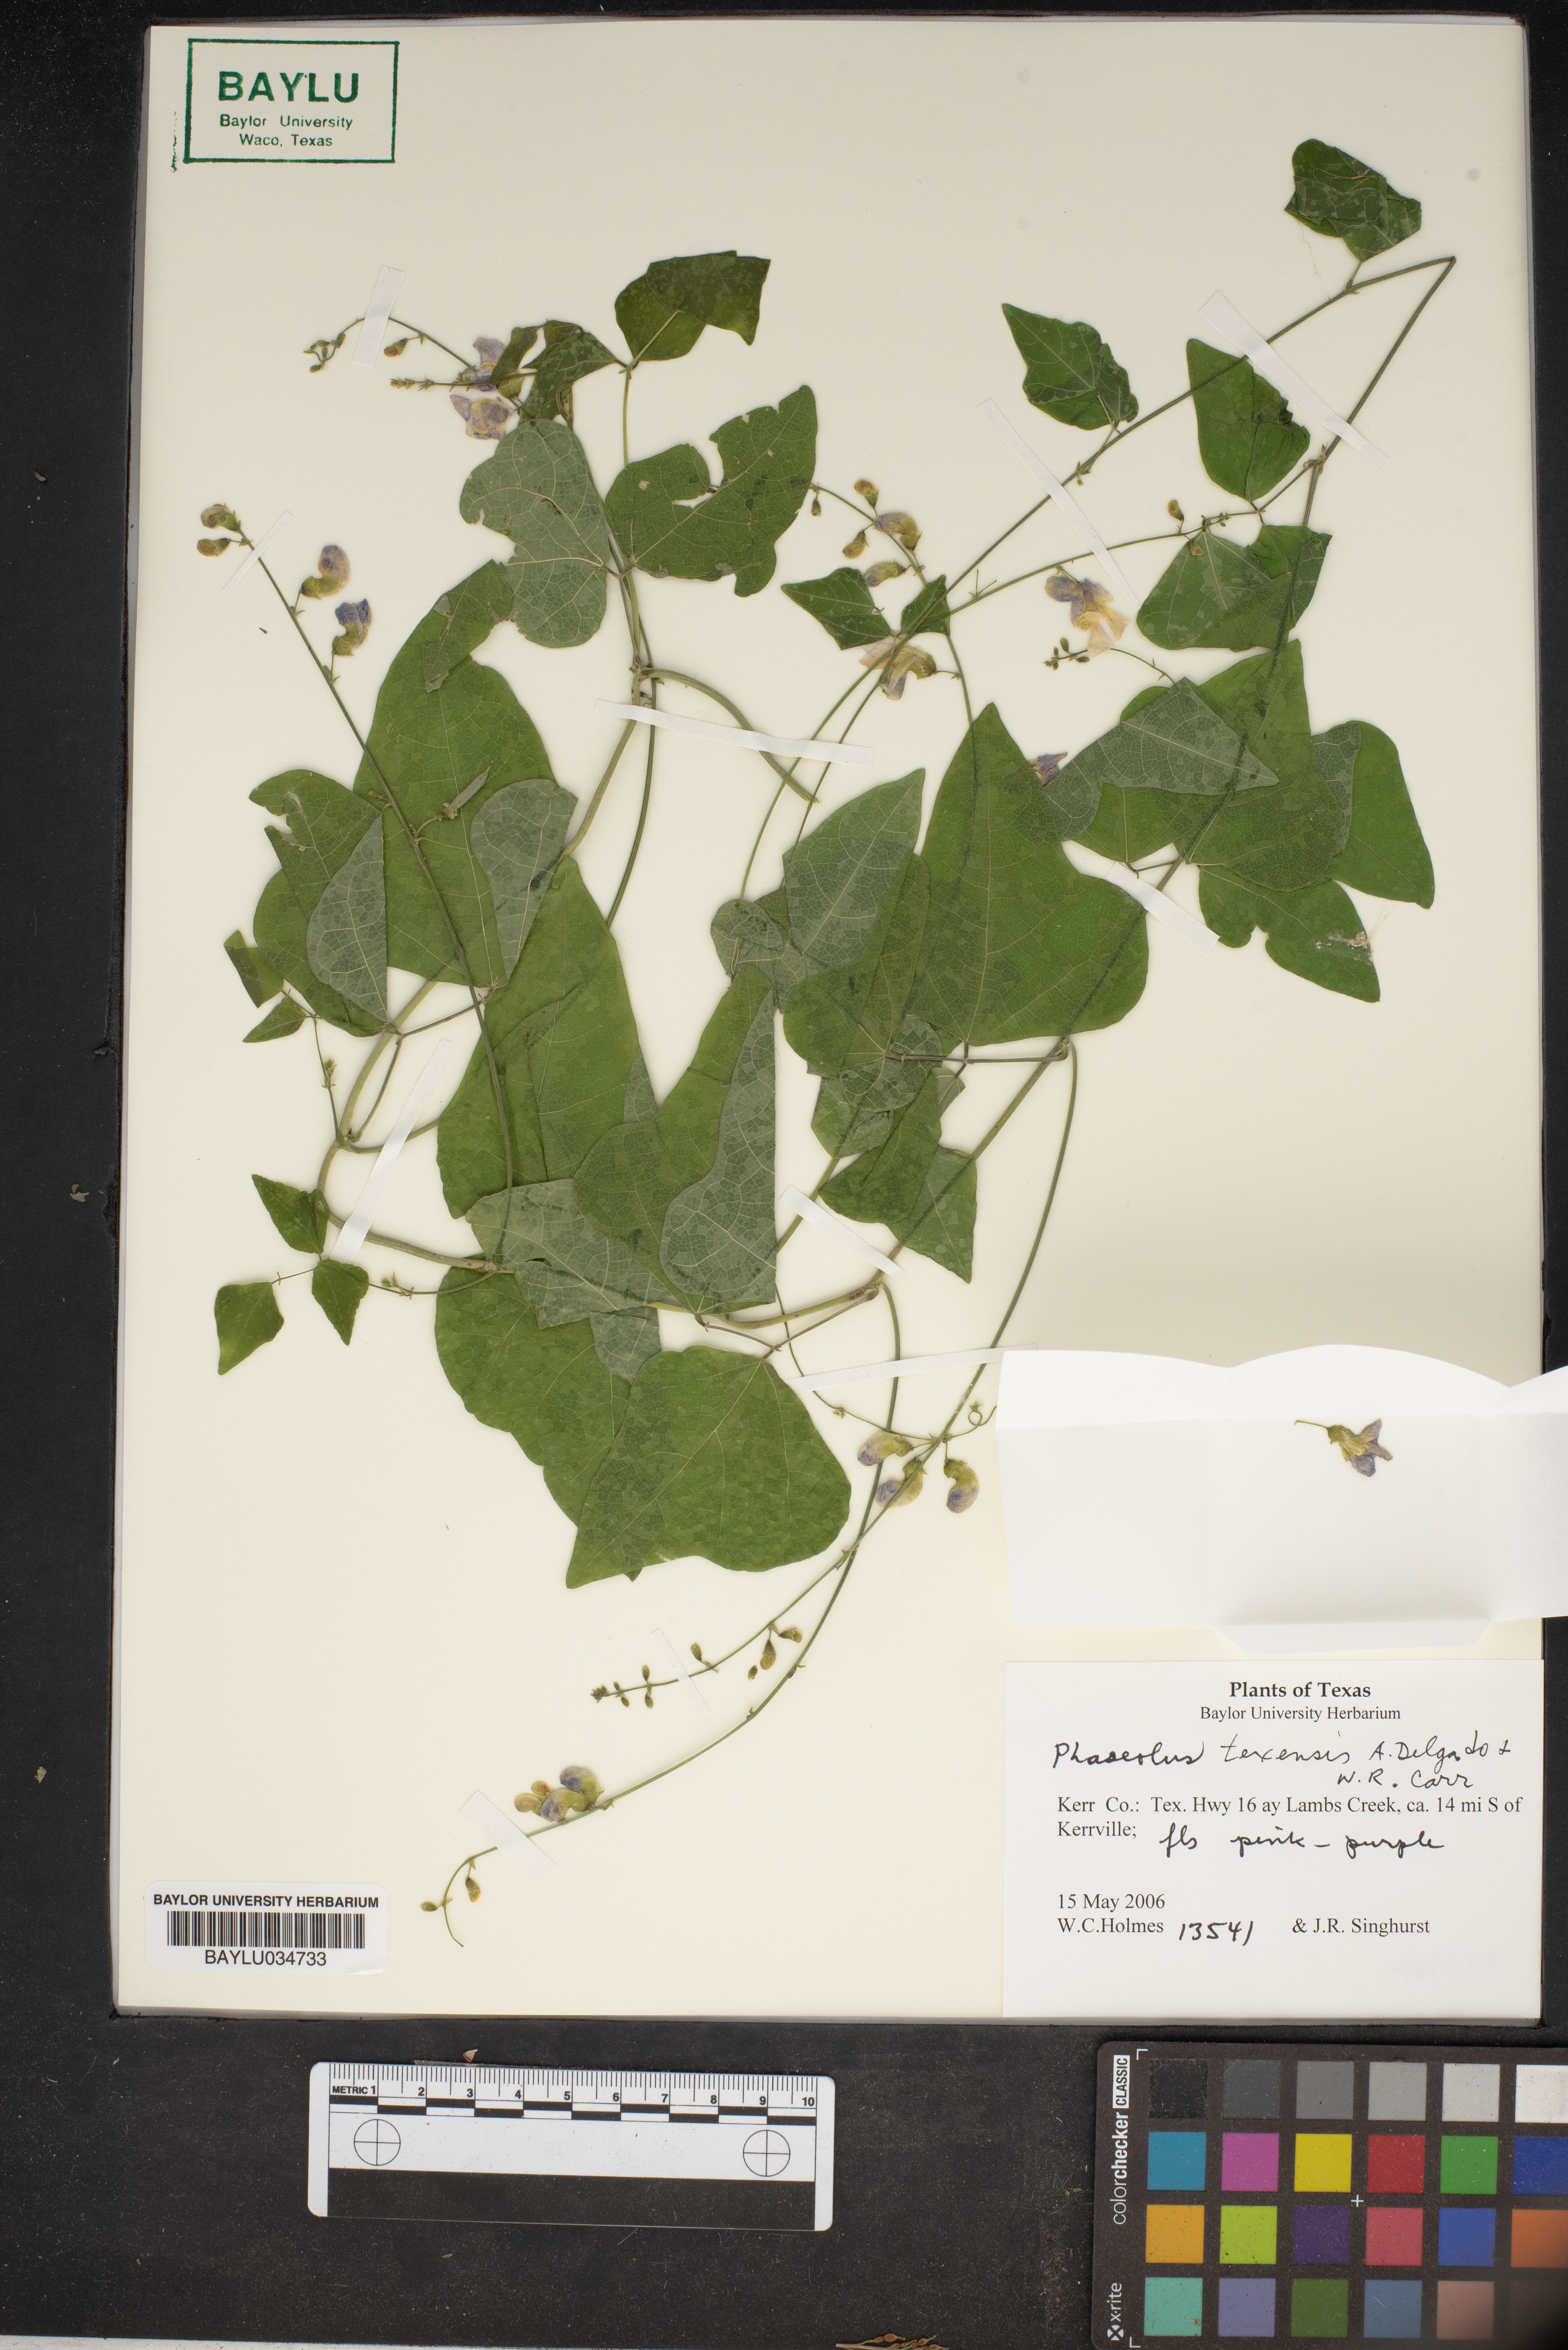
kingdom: Plantae
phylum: Tracheophyta
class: Magnoliopsida
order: Fabales
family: Fabaceae
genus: Phaseolus
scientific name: Phaseolus texensis
